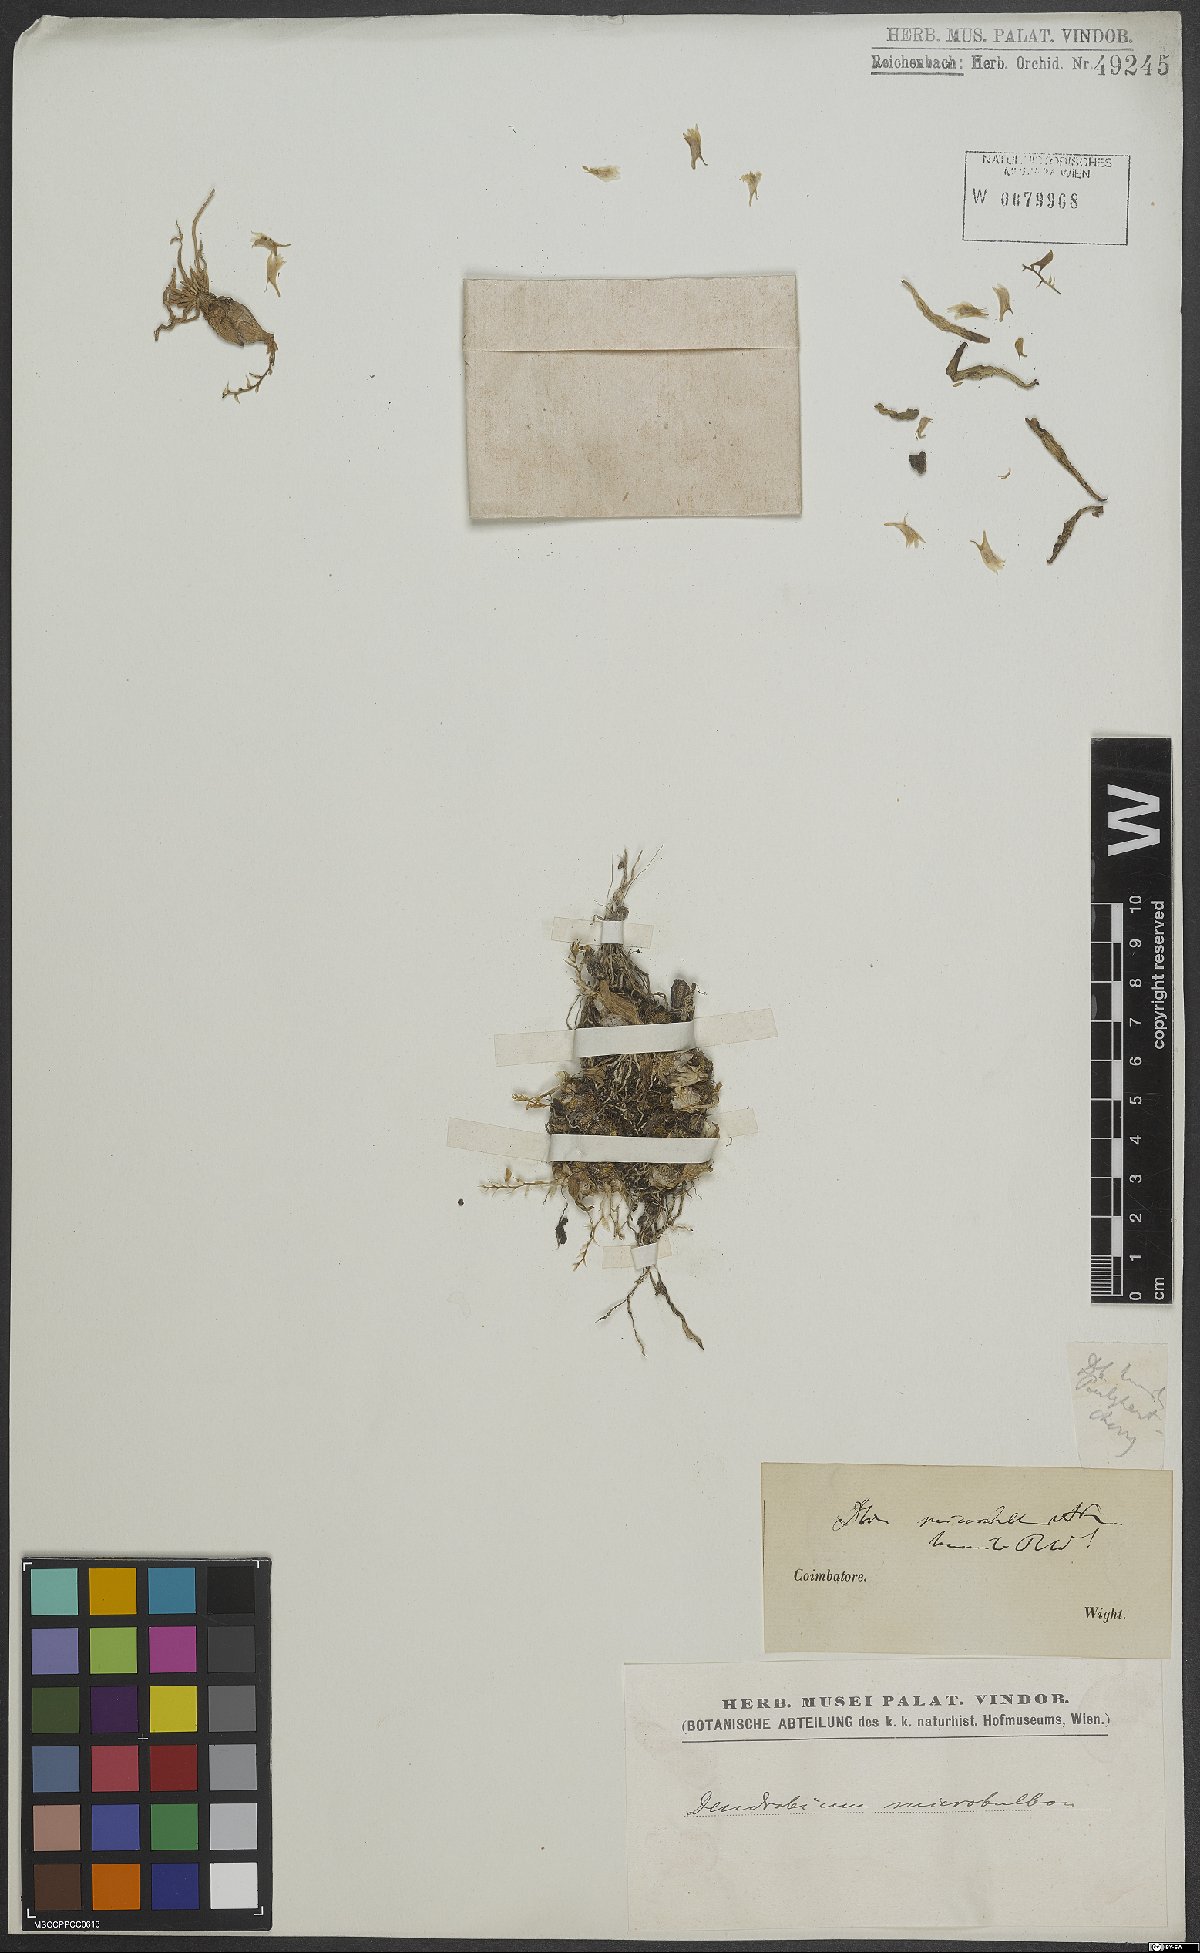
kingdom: Plantae
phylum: Tracheophyta
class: Liliopsida
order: Asparagales
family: Orchidaceae
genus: Dendrobium
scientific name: Dendrobium microbulbon
